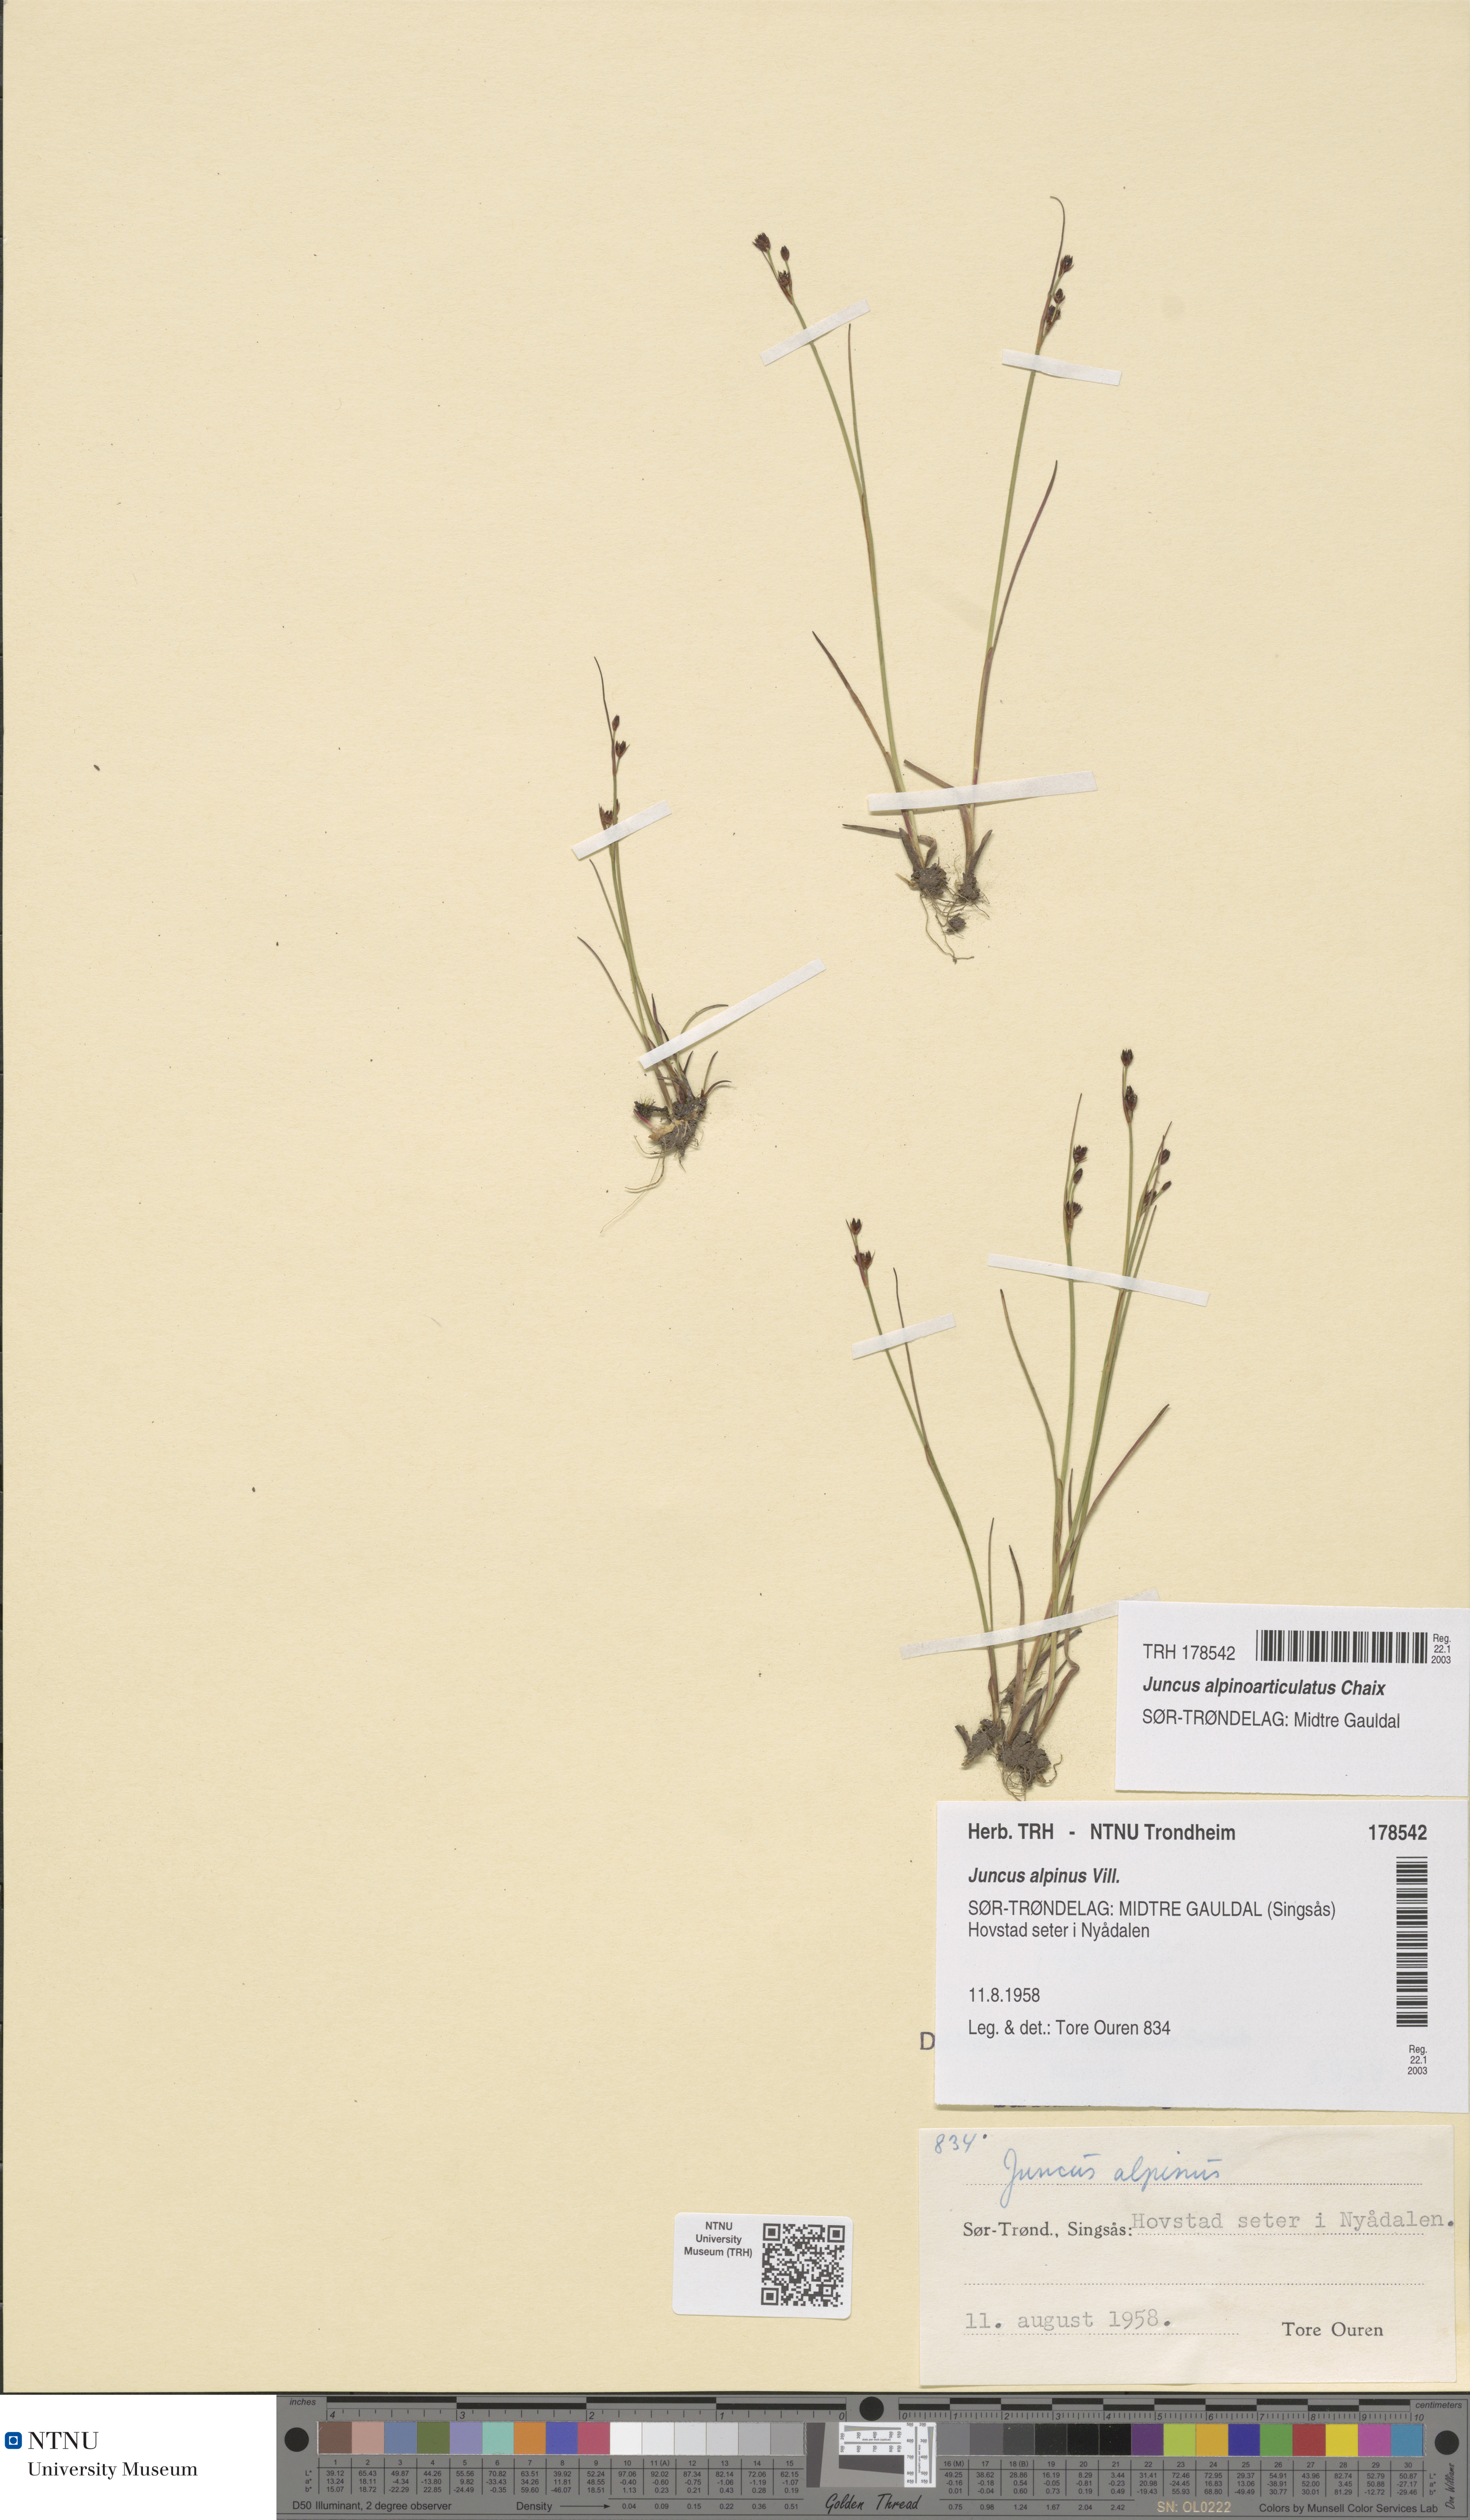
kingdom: Plantae
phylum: Tracheophyta
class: Liliopsida
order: Poales
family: Juncaceae
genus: Juncus
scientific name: Juncus alpinoarticulatus
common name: Alpine rush
